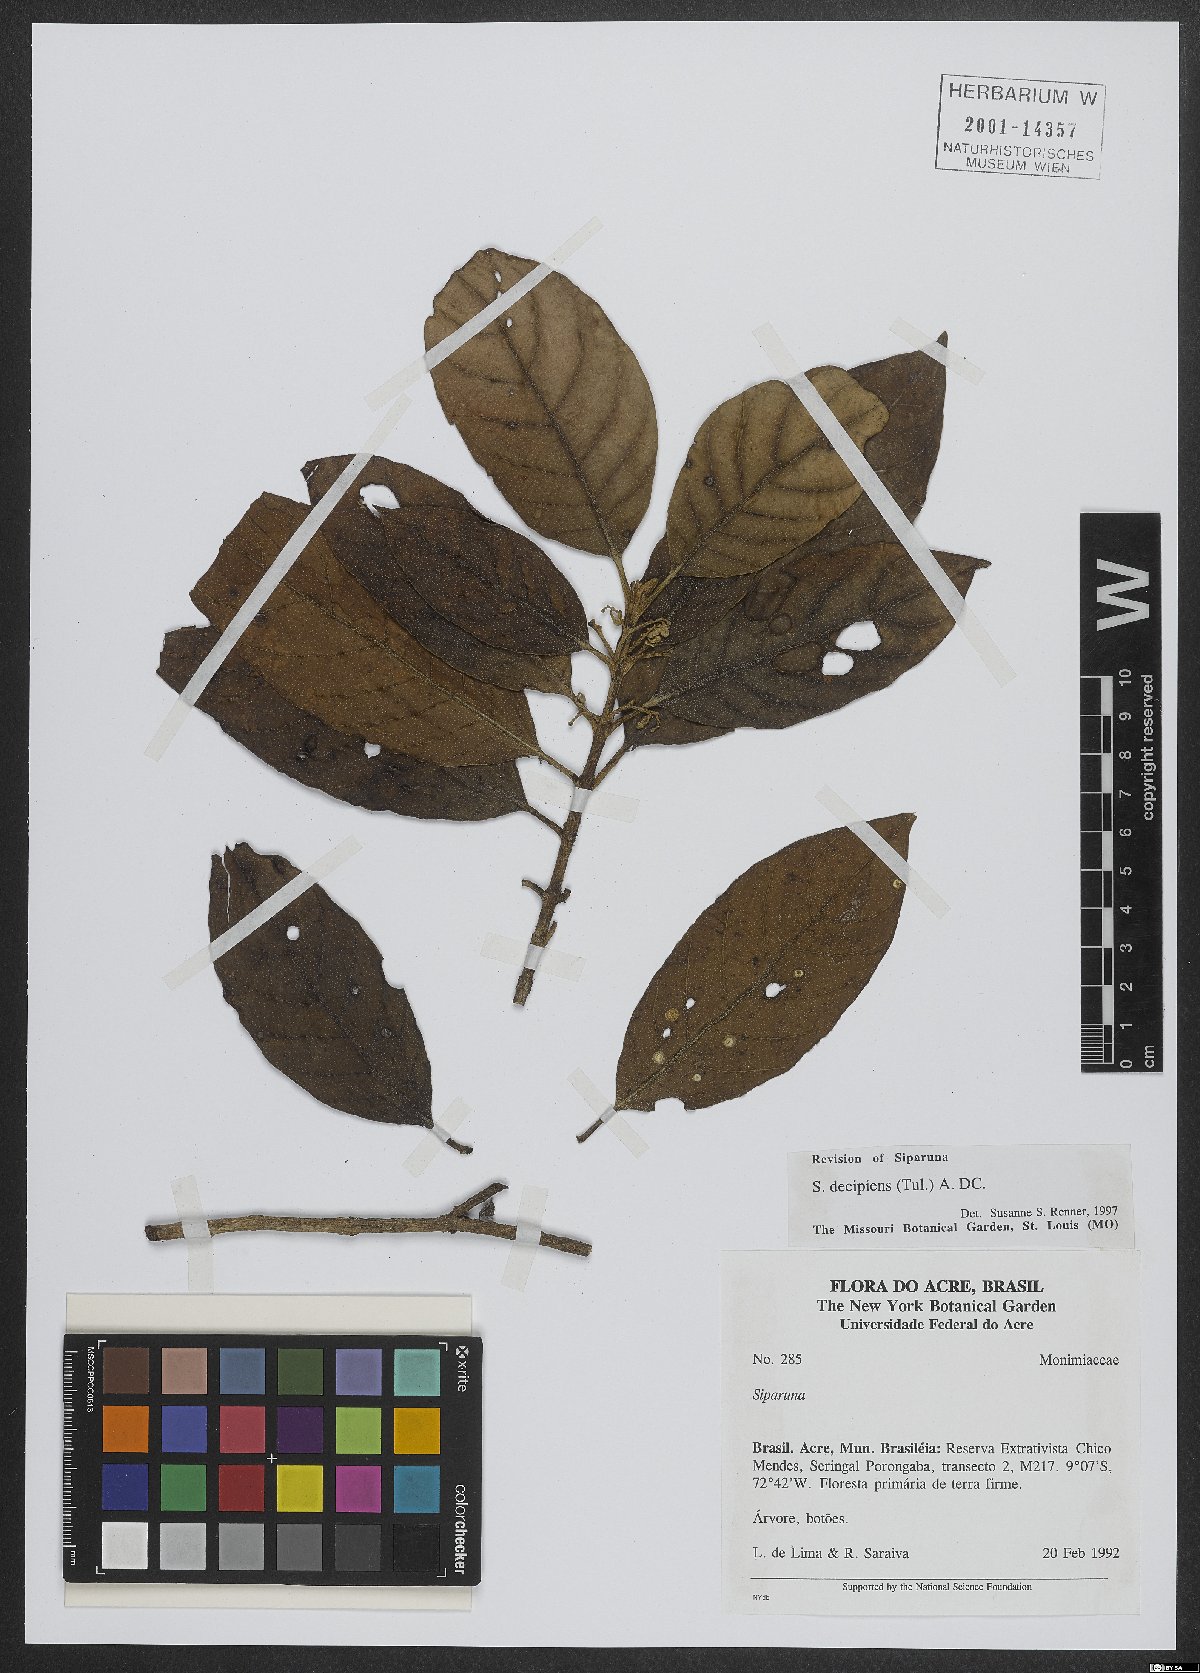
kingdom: Plantae
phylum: Tracheophyta
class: Magnoliopsida
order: Laurales
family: Siparunaceae
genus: Siparuna
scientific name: Siparuna decipiens
